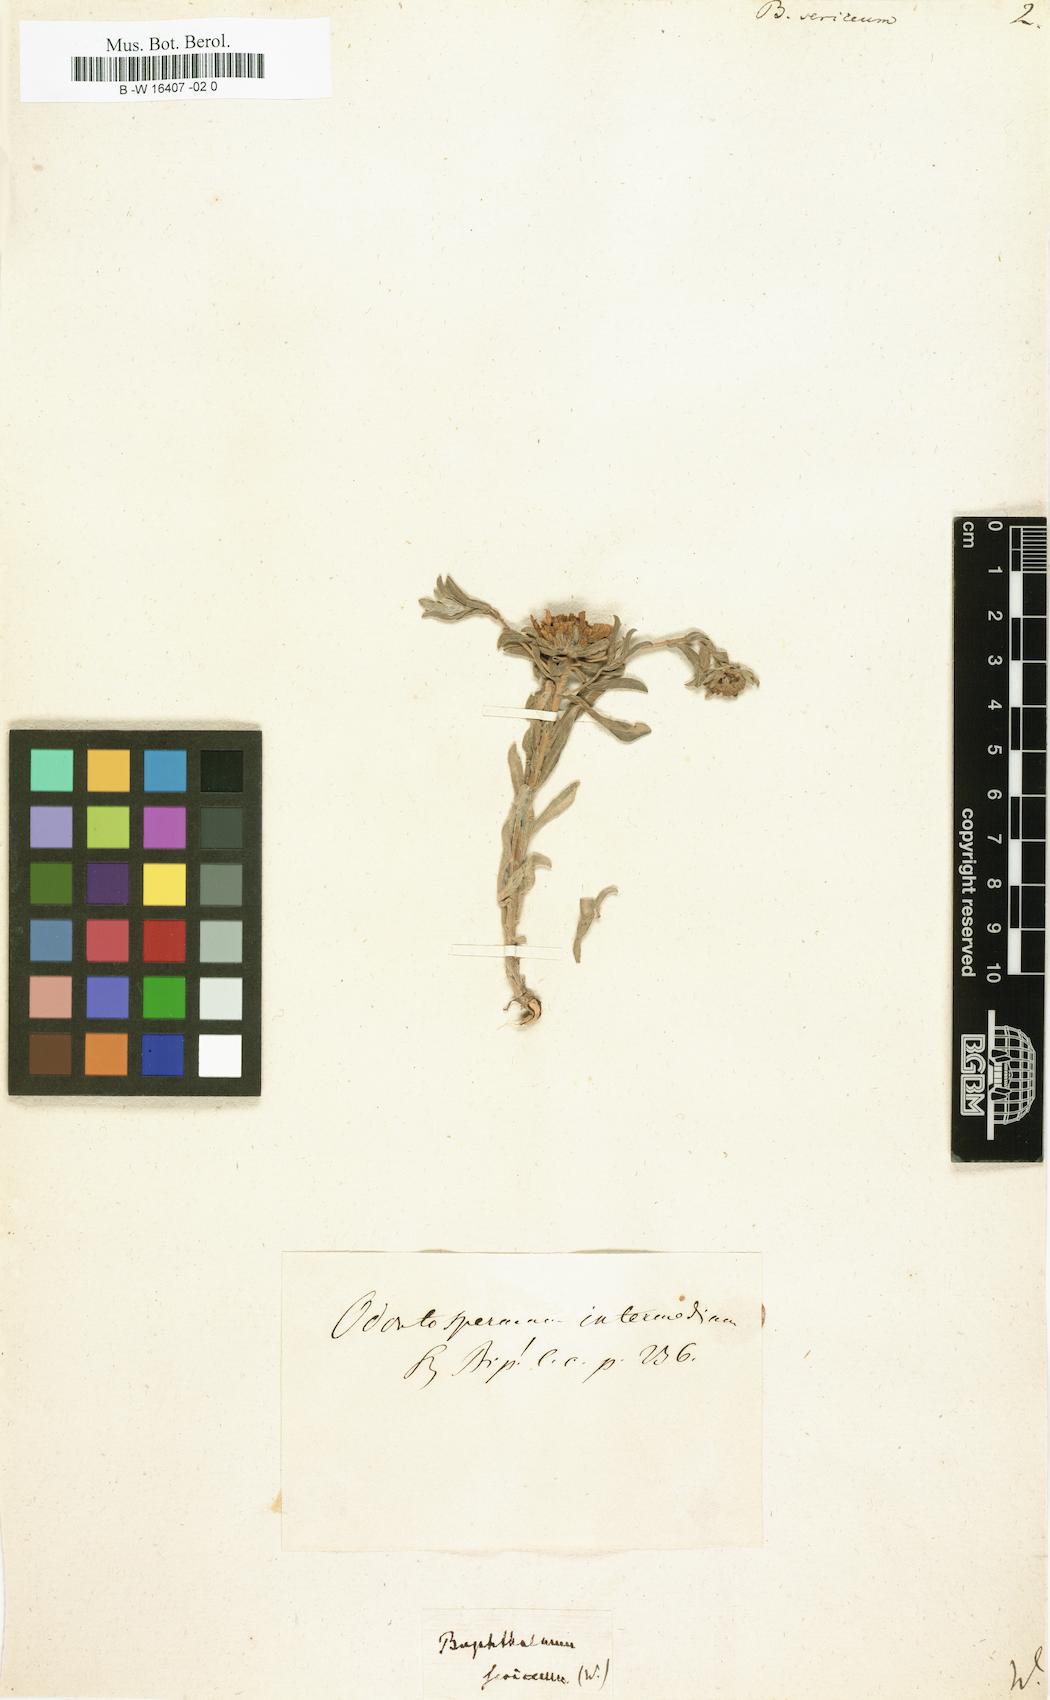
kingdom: Plantae
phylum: Tracheophyta
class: Magnoliopsida
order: Asterales
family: Asteraceae
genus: Asteriscus
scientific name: Asteriscus sericeus
